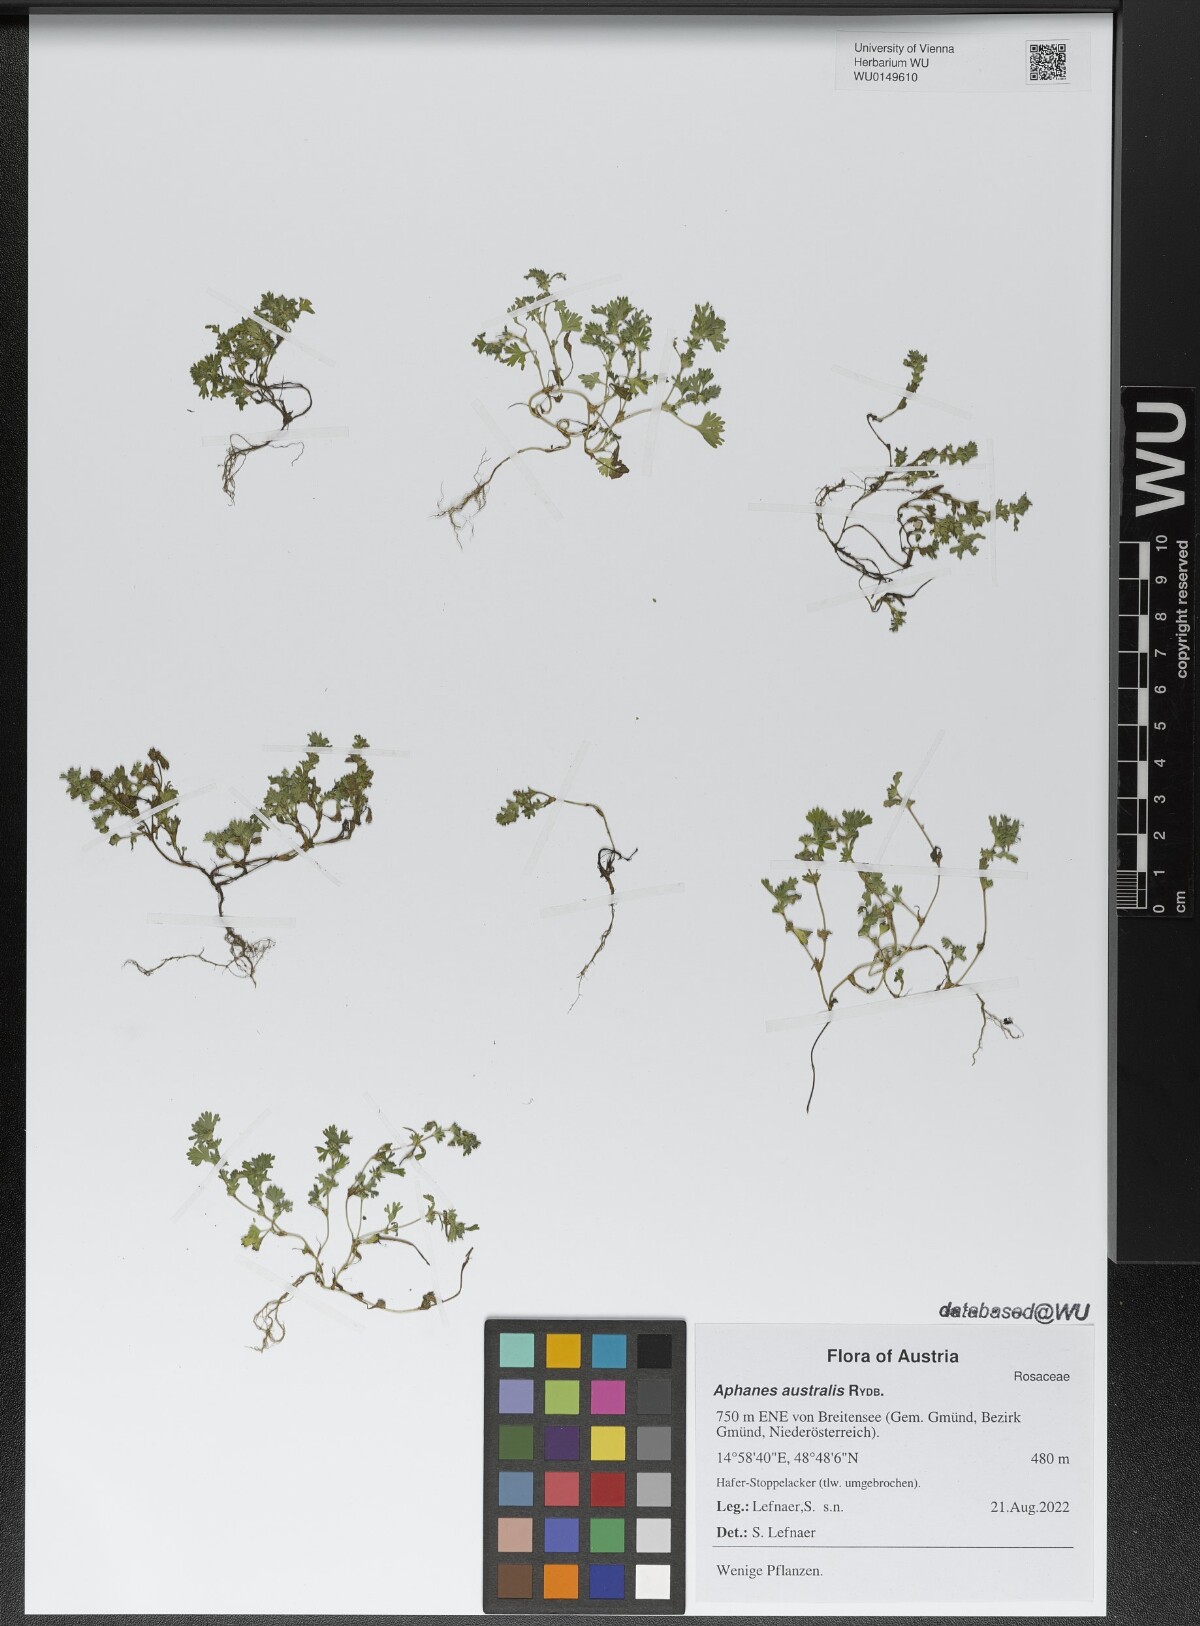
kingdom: Plantae
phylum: Tracheophyta
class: Magnoliopsida
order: Rosales
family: Rosaceae
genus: Aphanes
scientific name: Aphanes australis
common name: Slender parsley-piert
